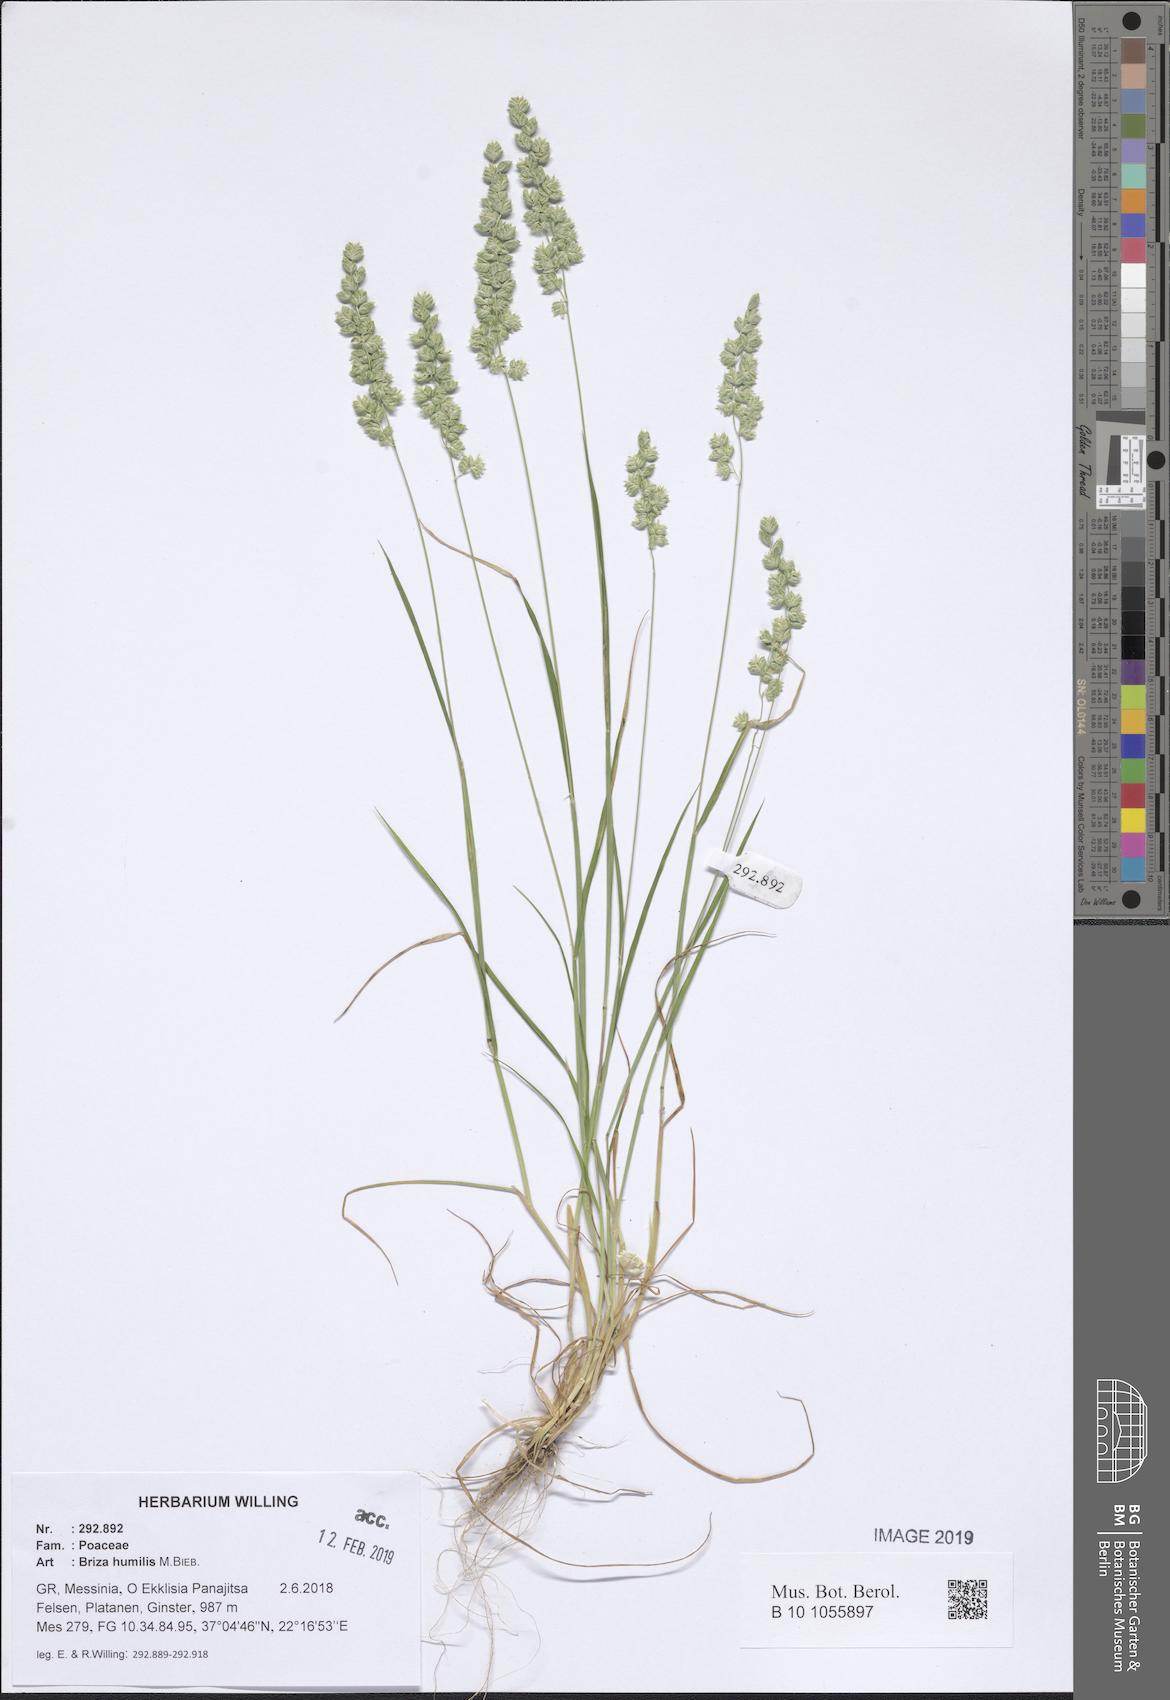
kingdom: Plantae
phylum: Tracheophyta
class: Liliopsida
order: Poales
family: Poaceae
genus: Briza
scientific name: Briza humilis
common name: Spiked quaking grass
